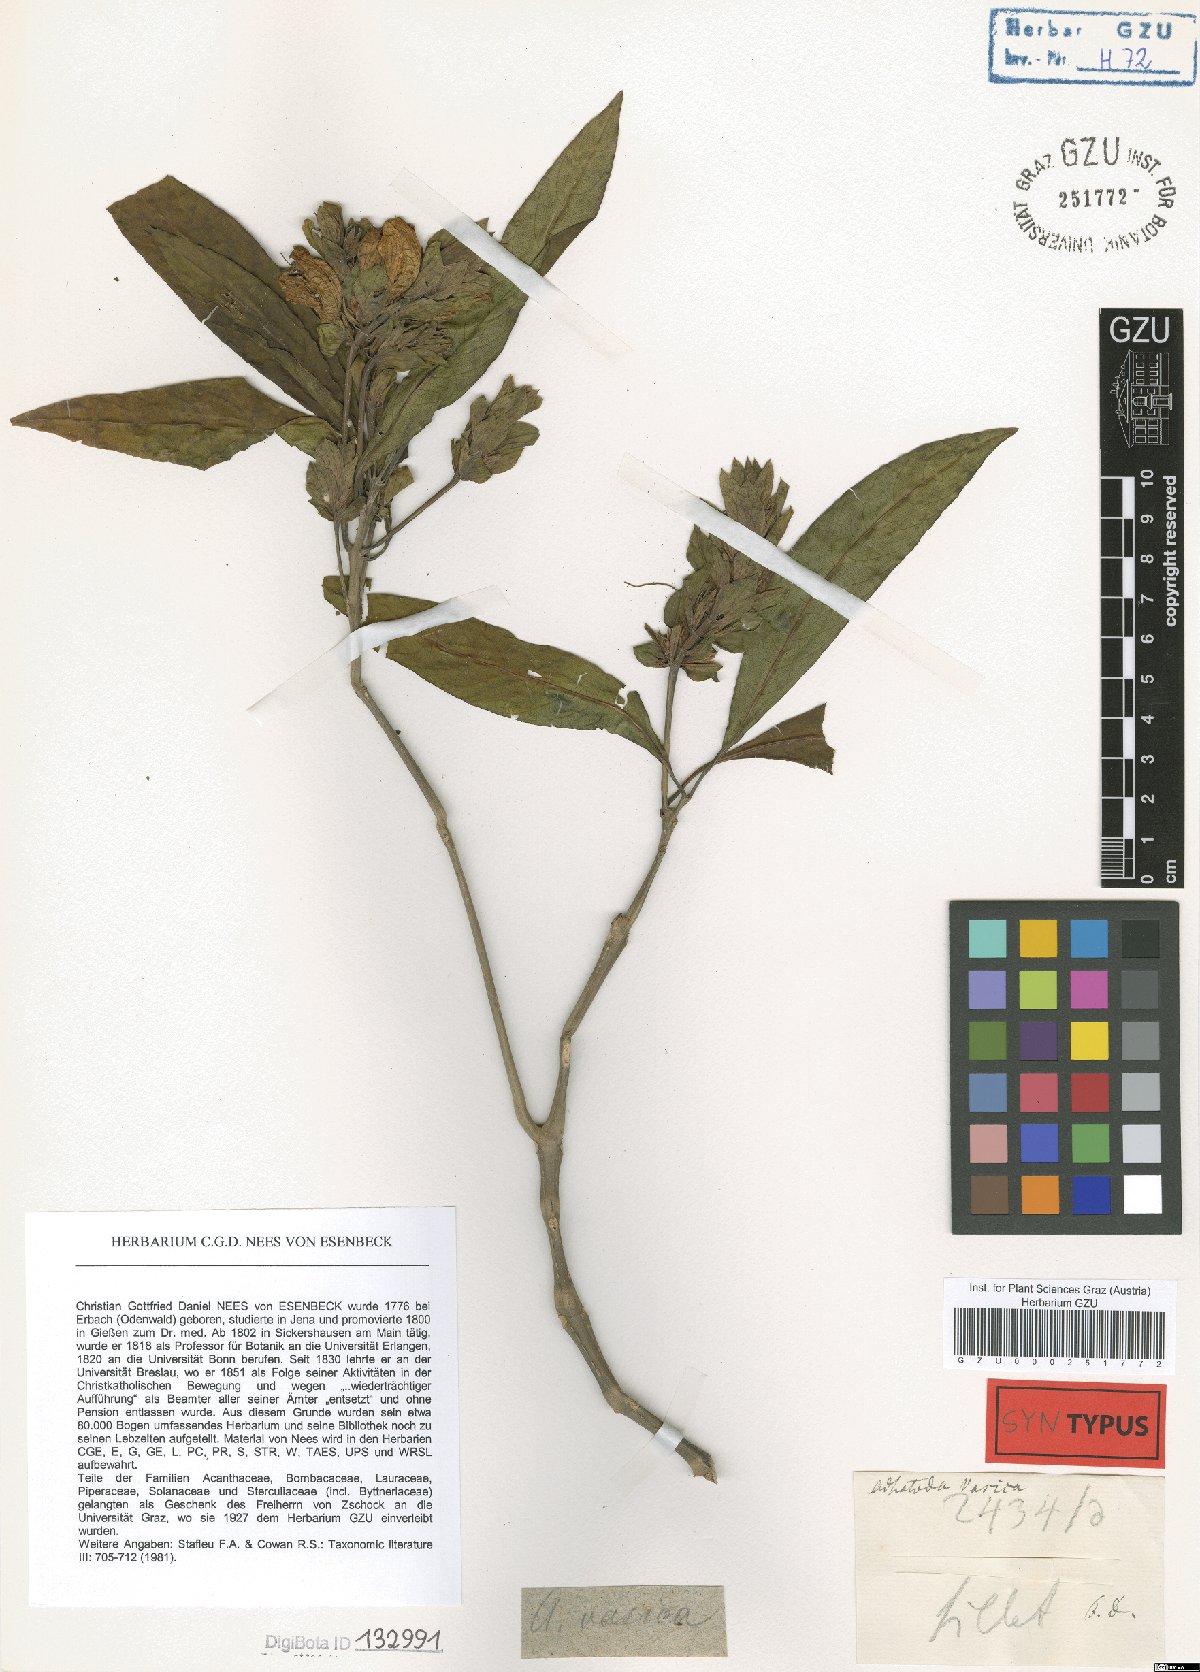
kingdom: Plantae
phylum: Tracheophyta
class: Magnoliopsida
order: Lamiales
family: Acanthaceae
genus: Justicia
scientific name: Justicia adhatoda
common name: Malabar nut
